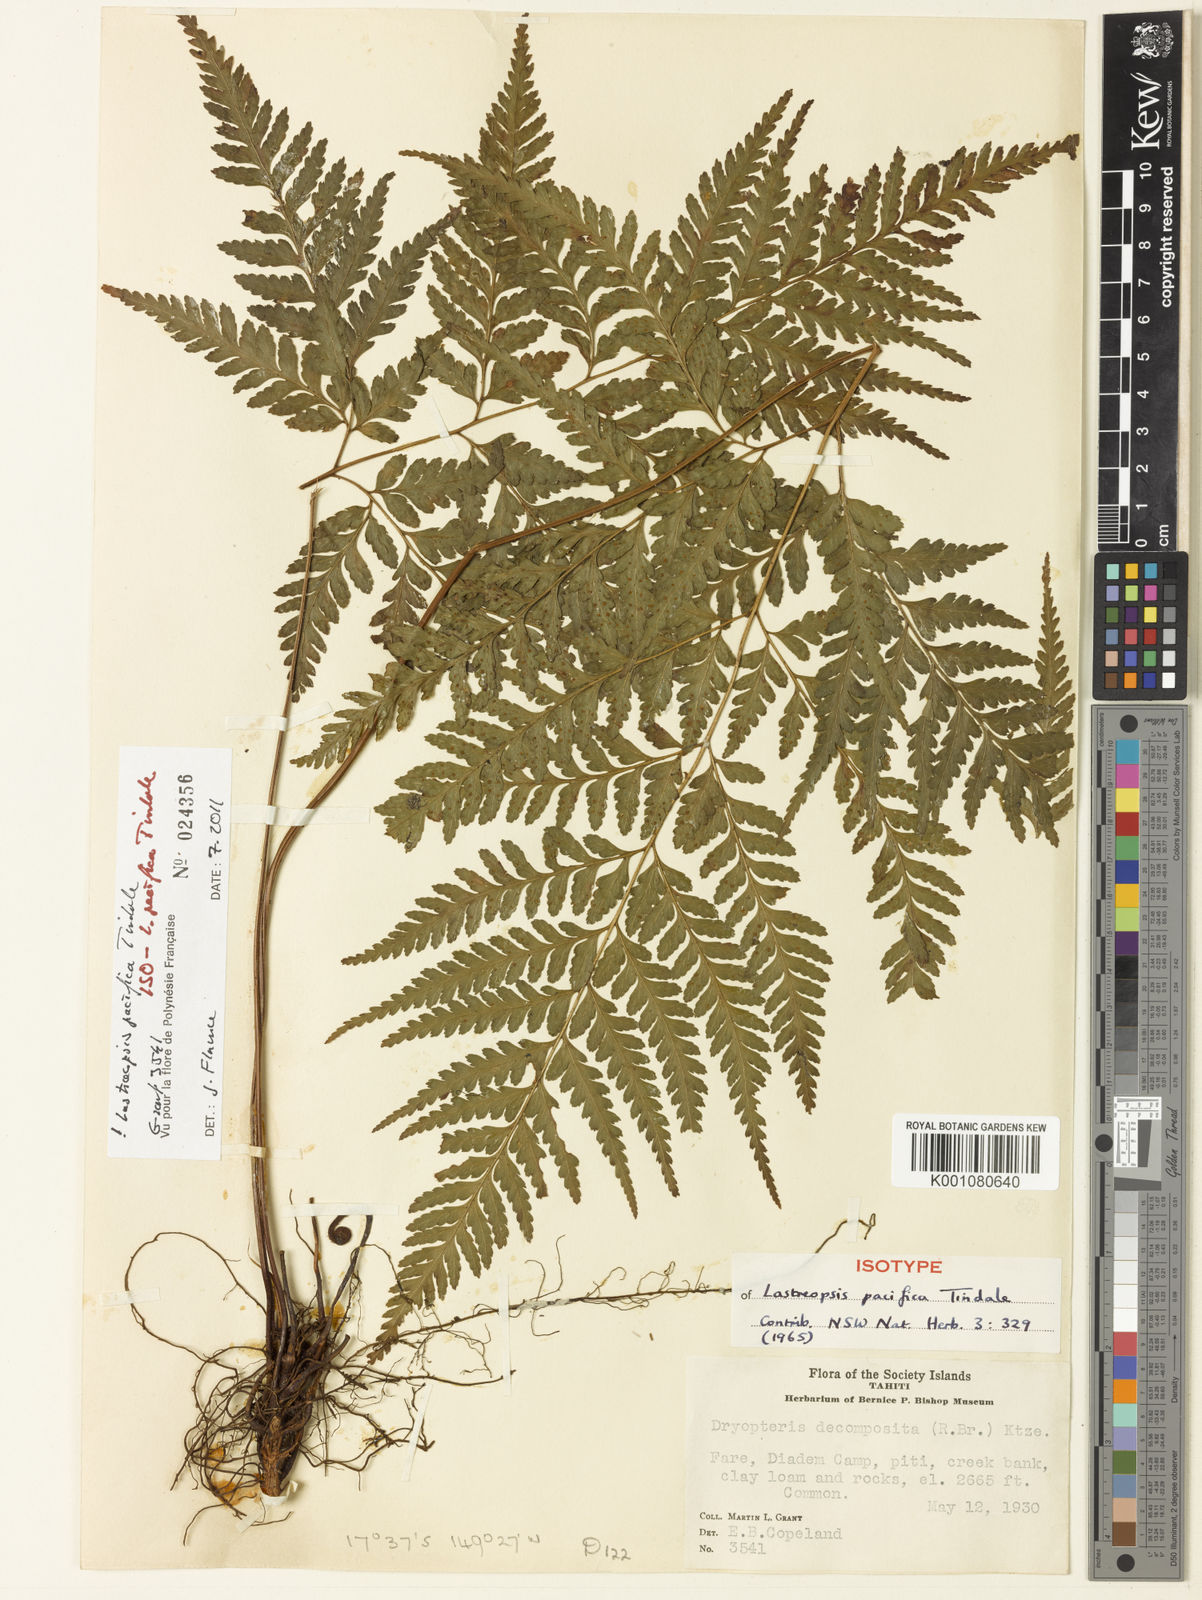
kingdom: Plantae
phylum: Tracheophyta
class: Polypodiopsida
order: Polypodiales
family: Dryopteridaceae
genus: Parapolystichum
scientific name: Parapolystichum pacificum
